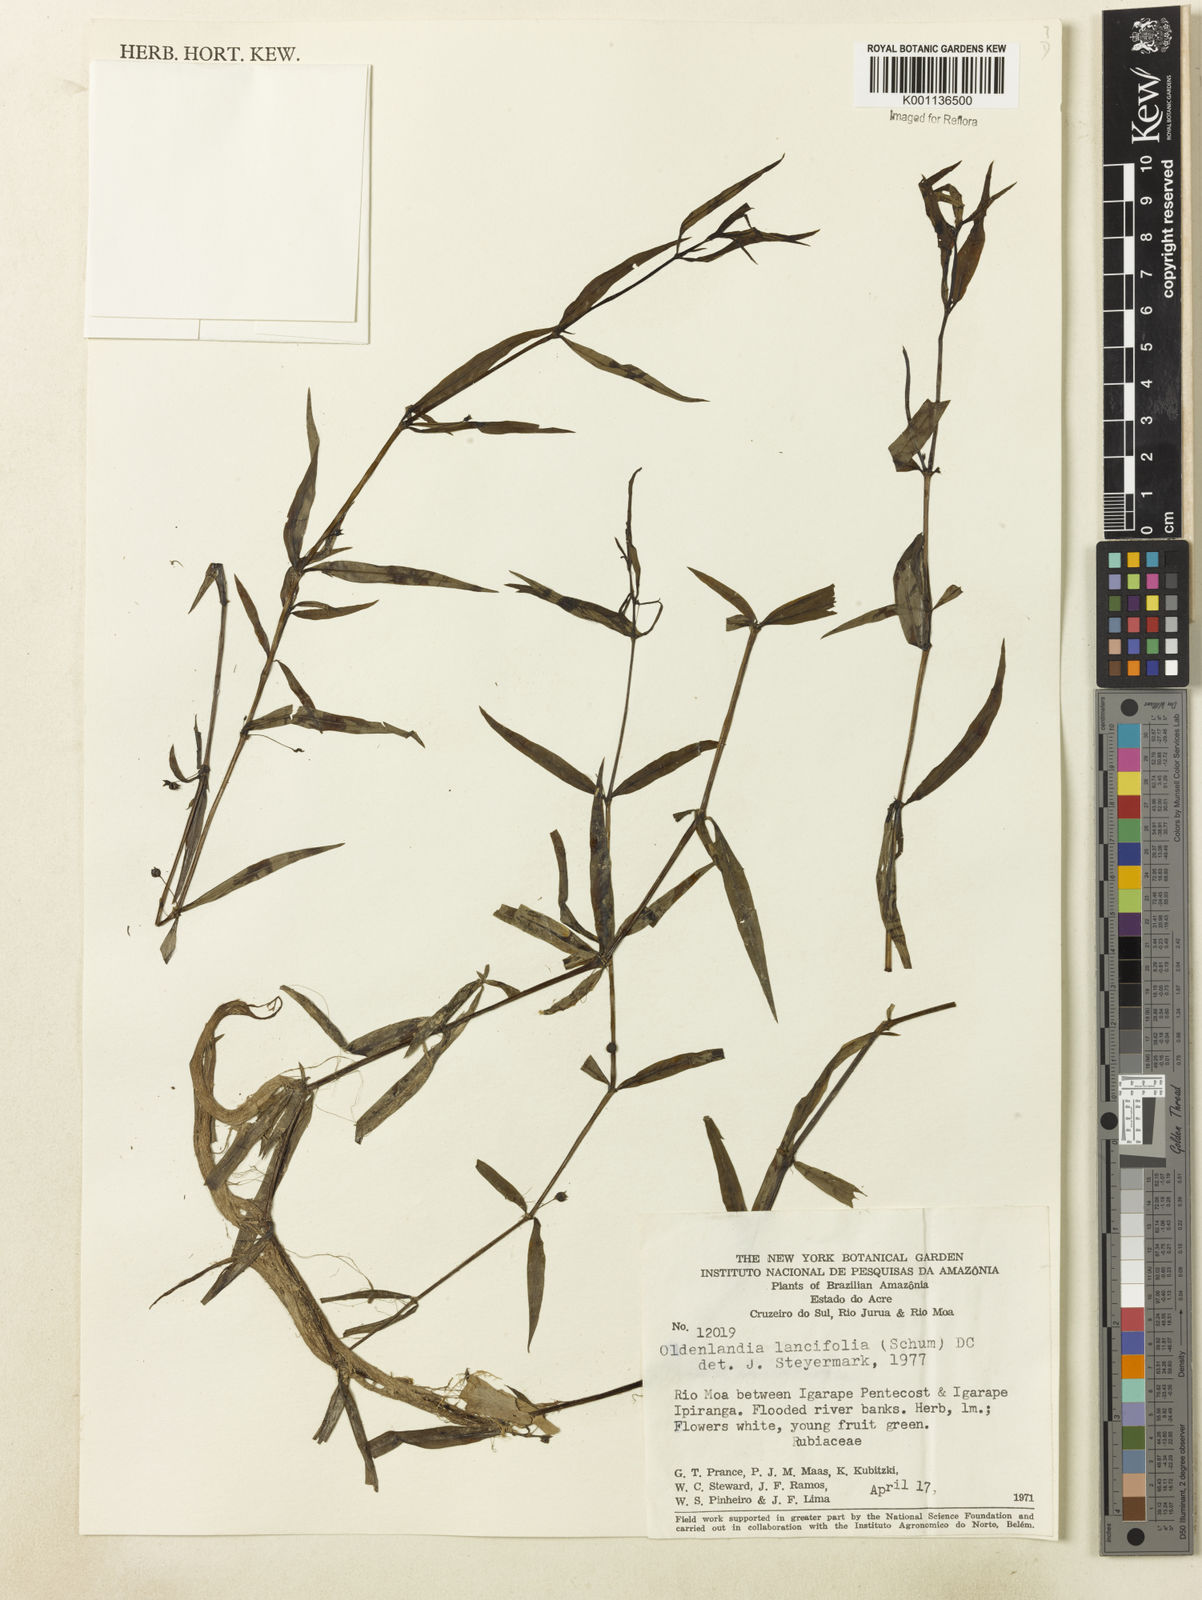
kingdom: Plantae
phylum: Tracheophyta
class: Magnoliopsida
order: Gentianales
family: Rubiaceae
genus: Oldenlandia
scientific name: Oldenlandia lancifolia
